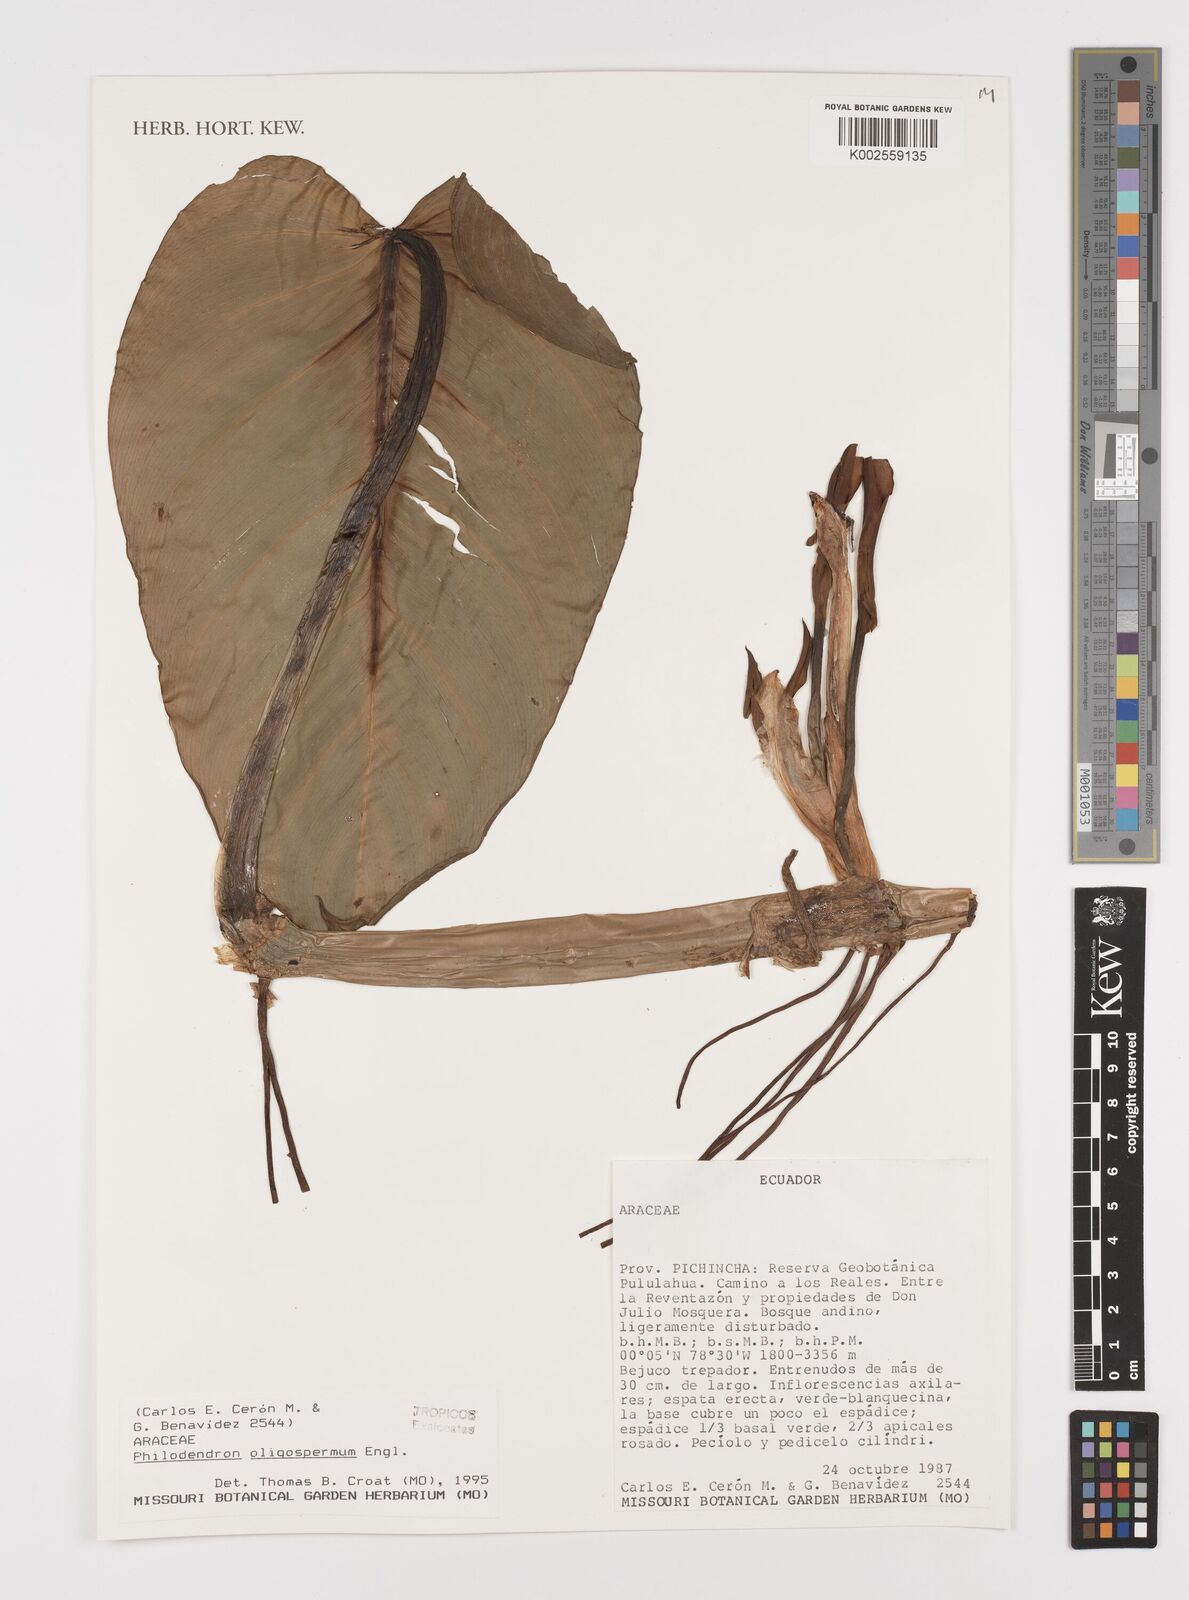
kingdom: Plantae
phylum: Tracheophyta
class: Liliopsida
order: Alismatales
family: Araceae
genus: Philodendron
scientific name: Philodendron oligospermum
